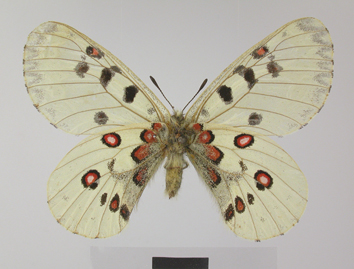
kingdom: Animalia
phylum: Arthropoda
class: Insecta
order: Lepidoptera
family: Papilionidae
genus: Parnassius
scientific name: Parnassius jacquemontii
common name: Keeled apollo
